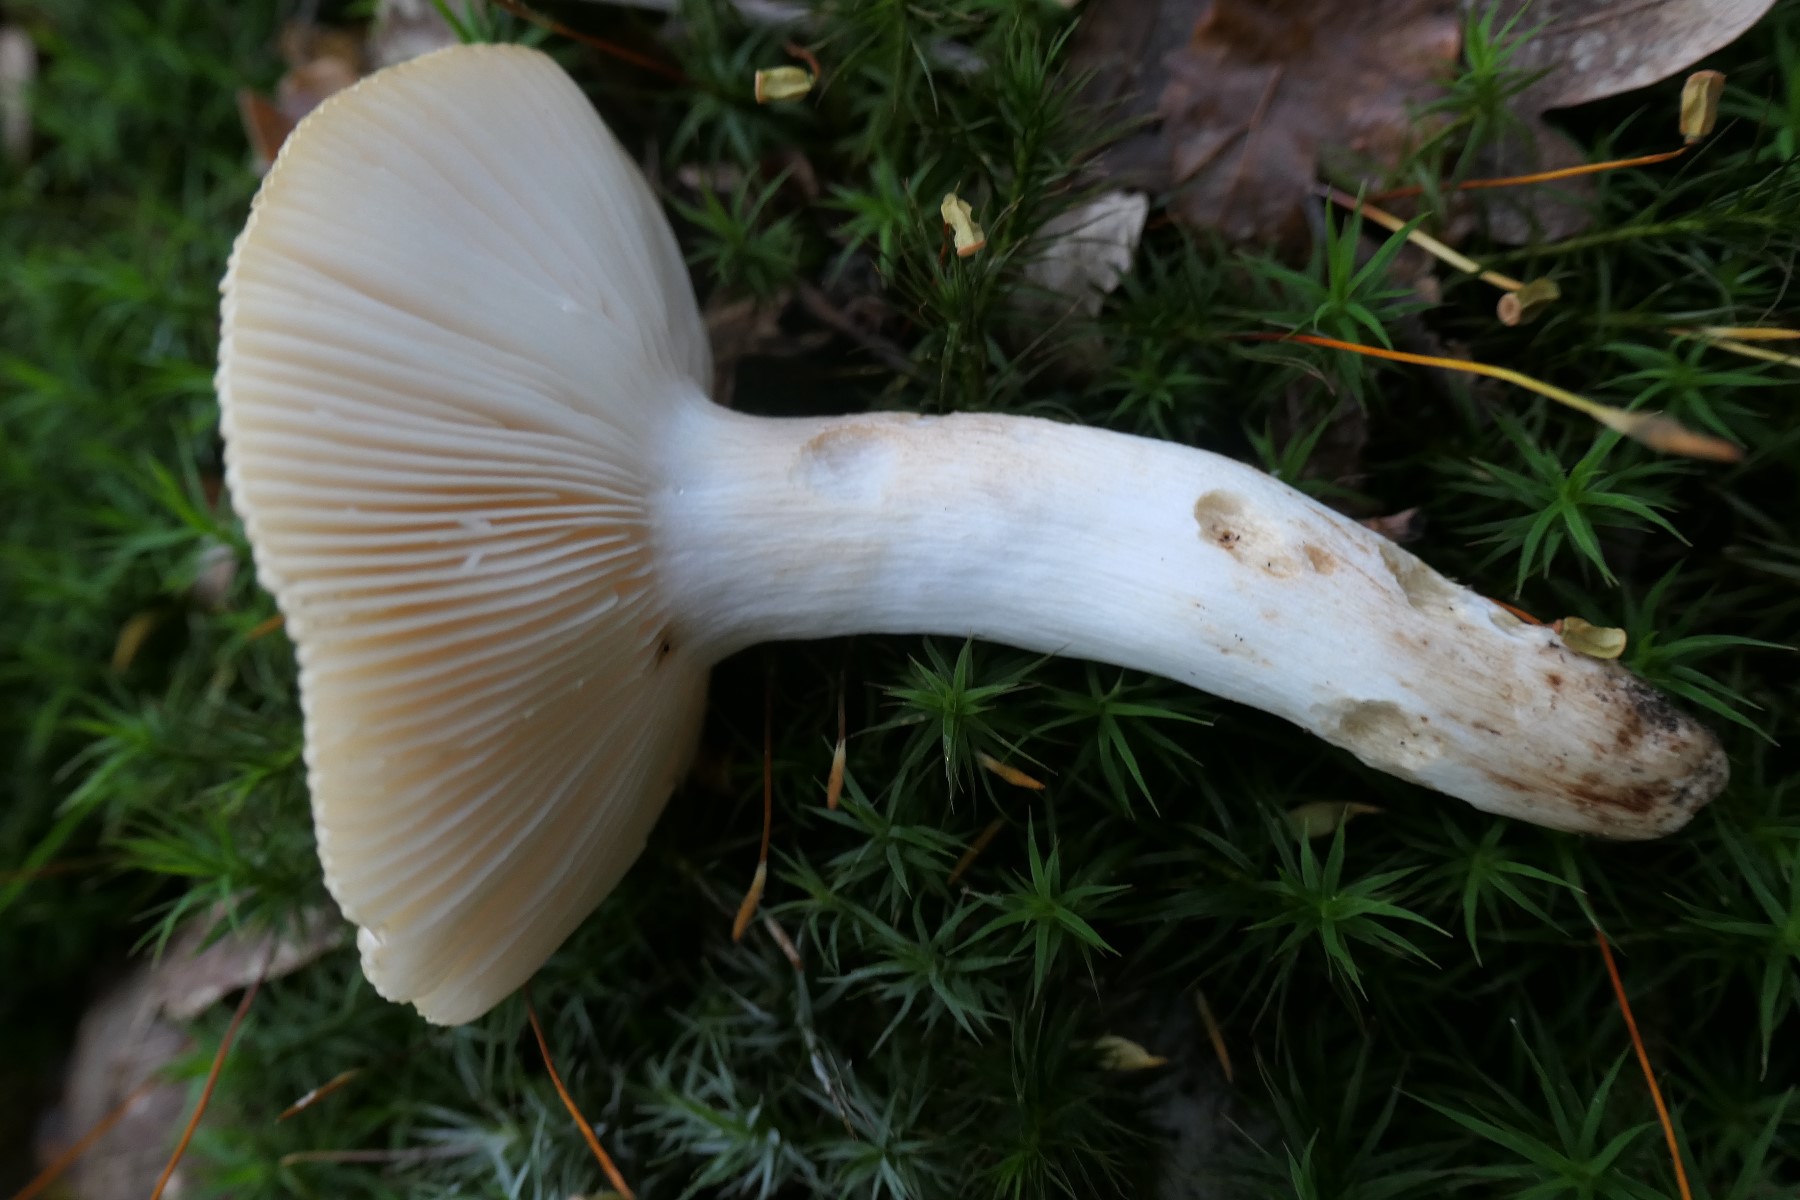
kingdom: Fungi
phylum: Basidiomycota
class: Agaricomycetes
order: Russulales
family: Russulaceae
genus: Russula
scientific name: Russula grata
